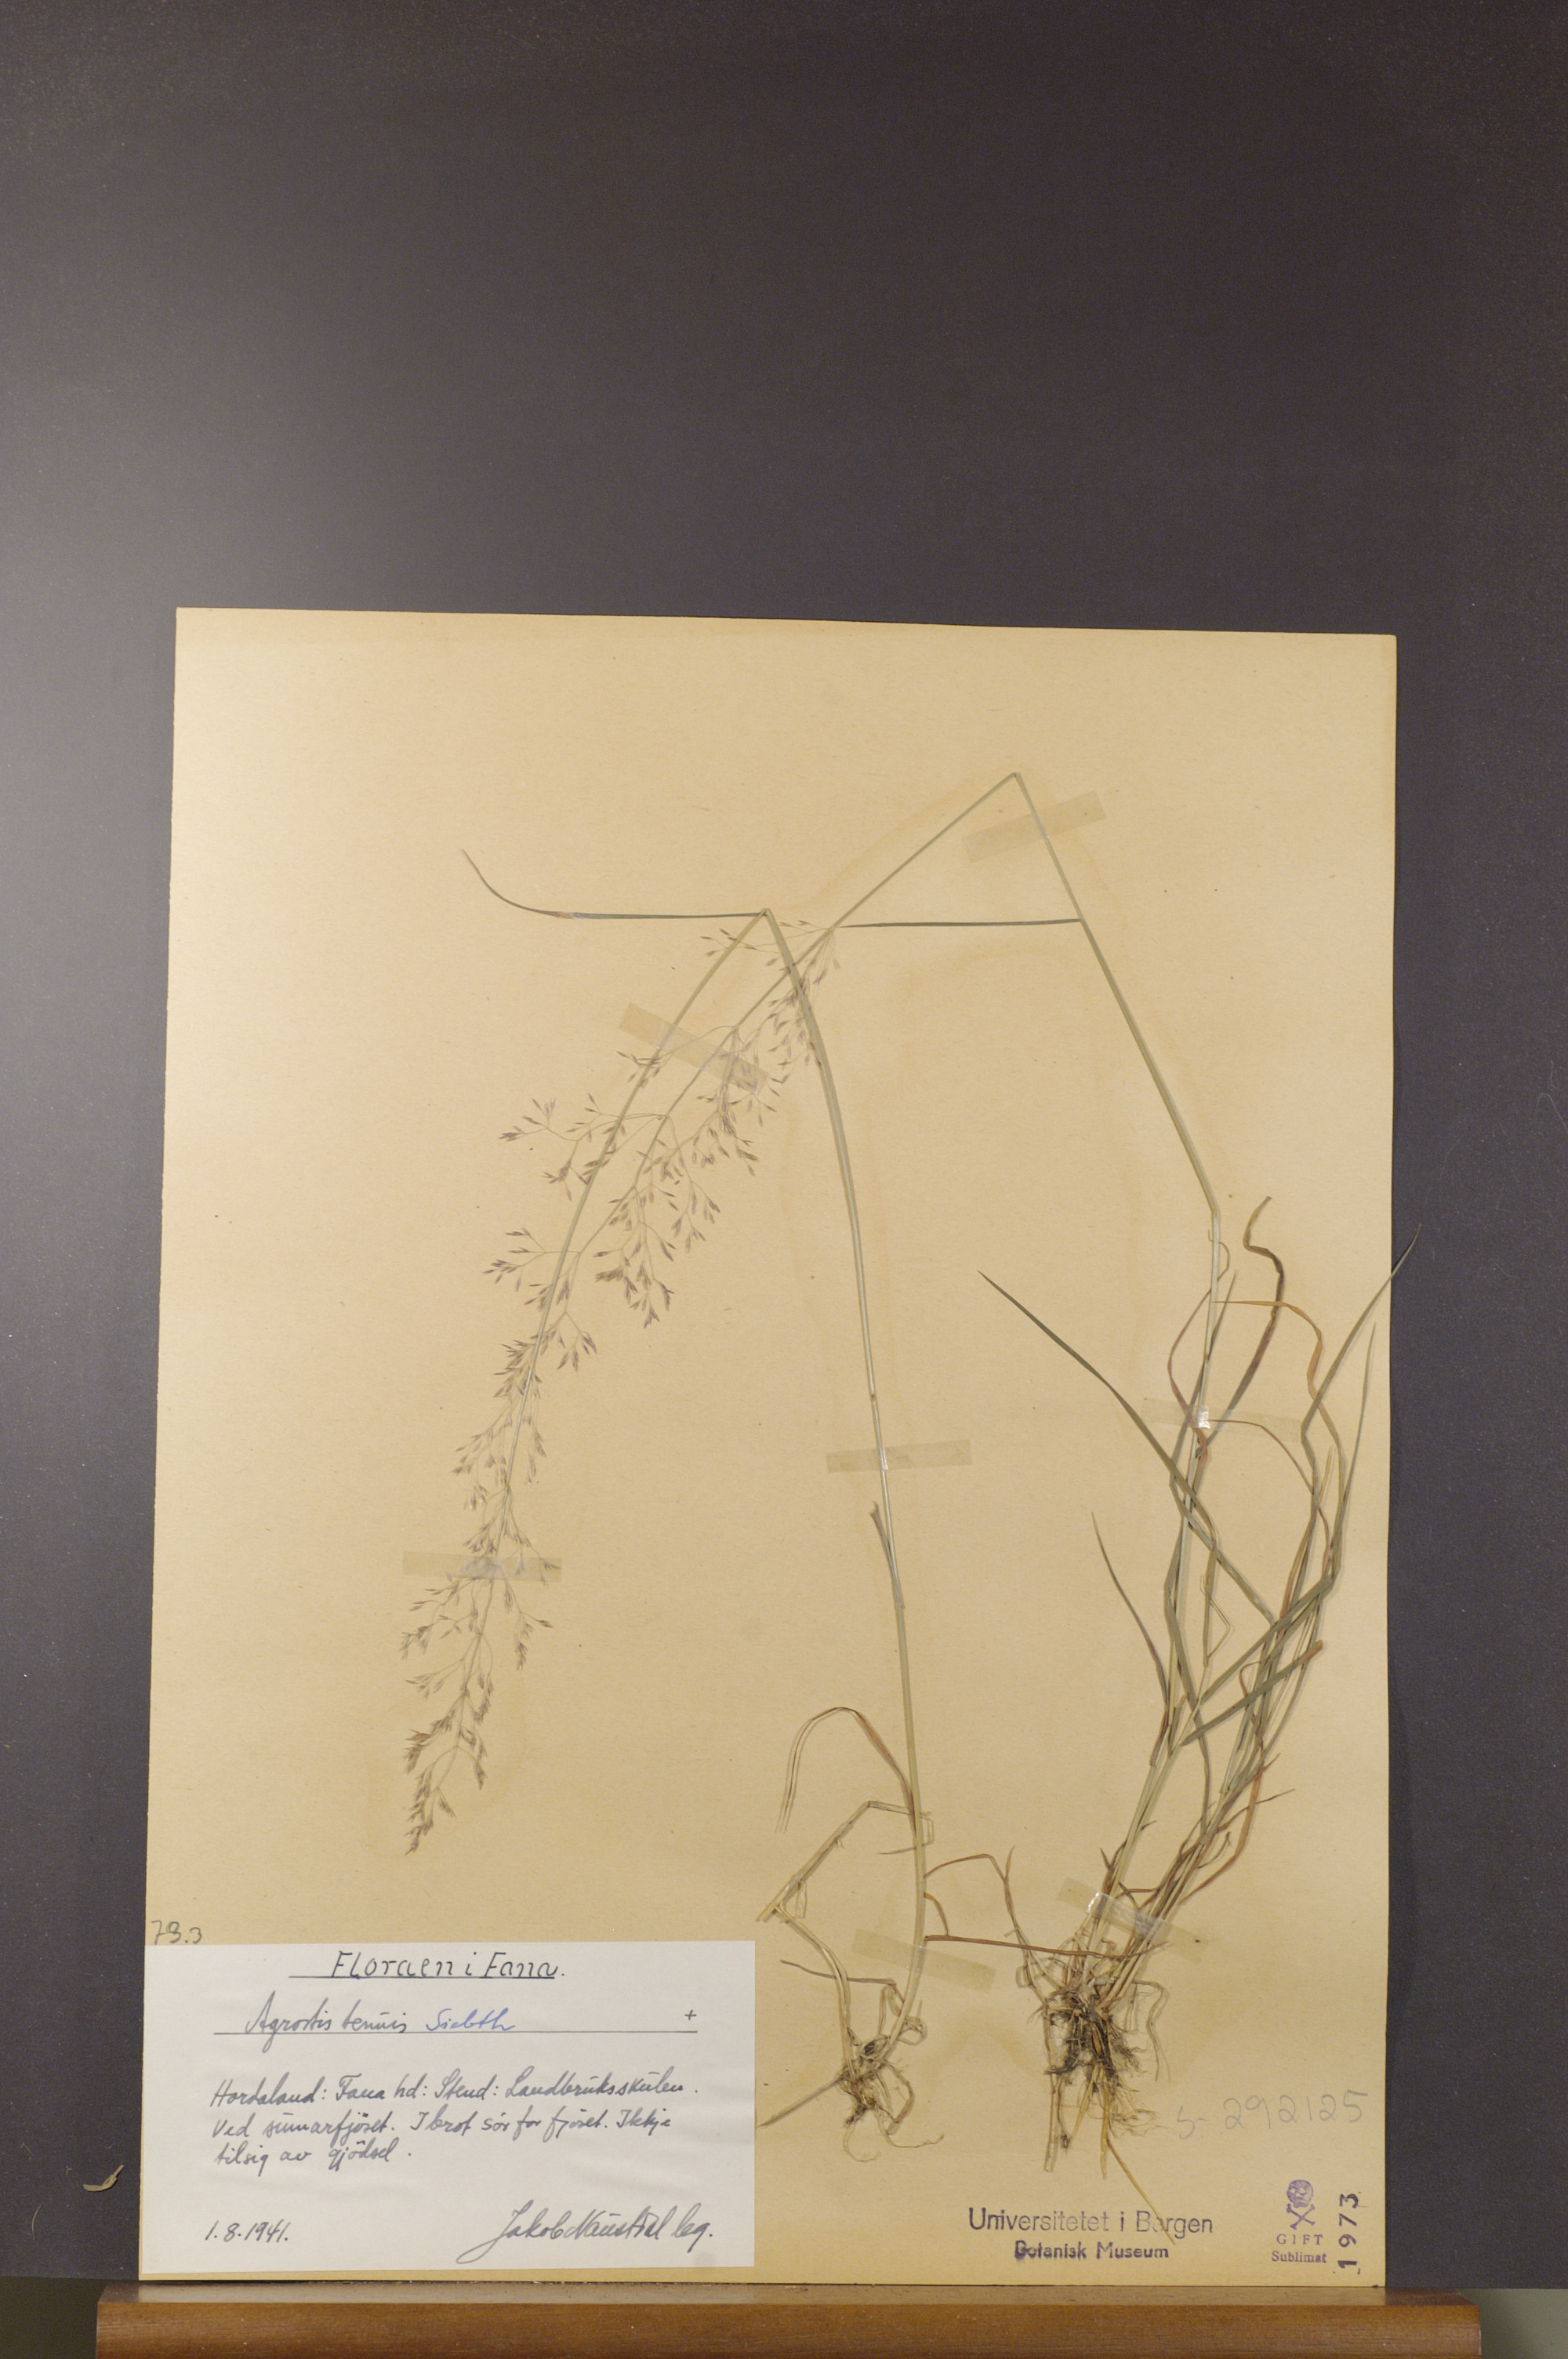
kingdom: Plantae
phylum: Tracheophyta
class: Liliopsida
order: Poales
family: Poaceae
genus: Agrostis
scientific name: Agrostis capillaris
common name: Colonial bentgrass
